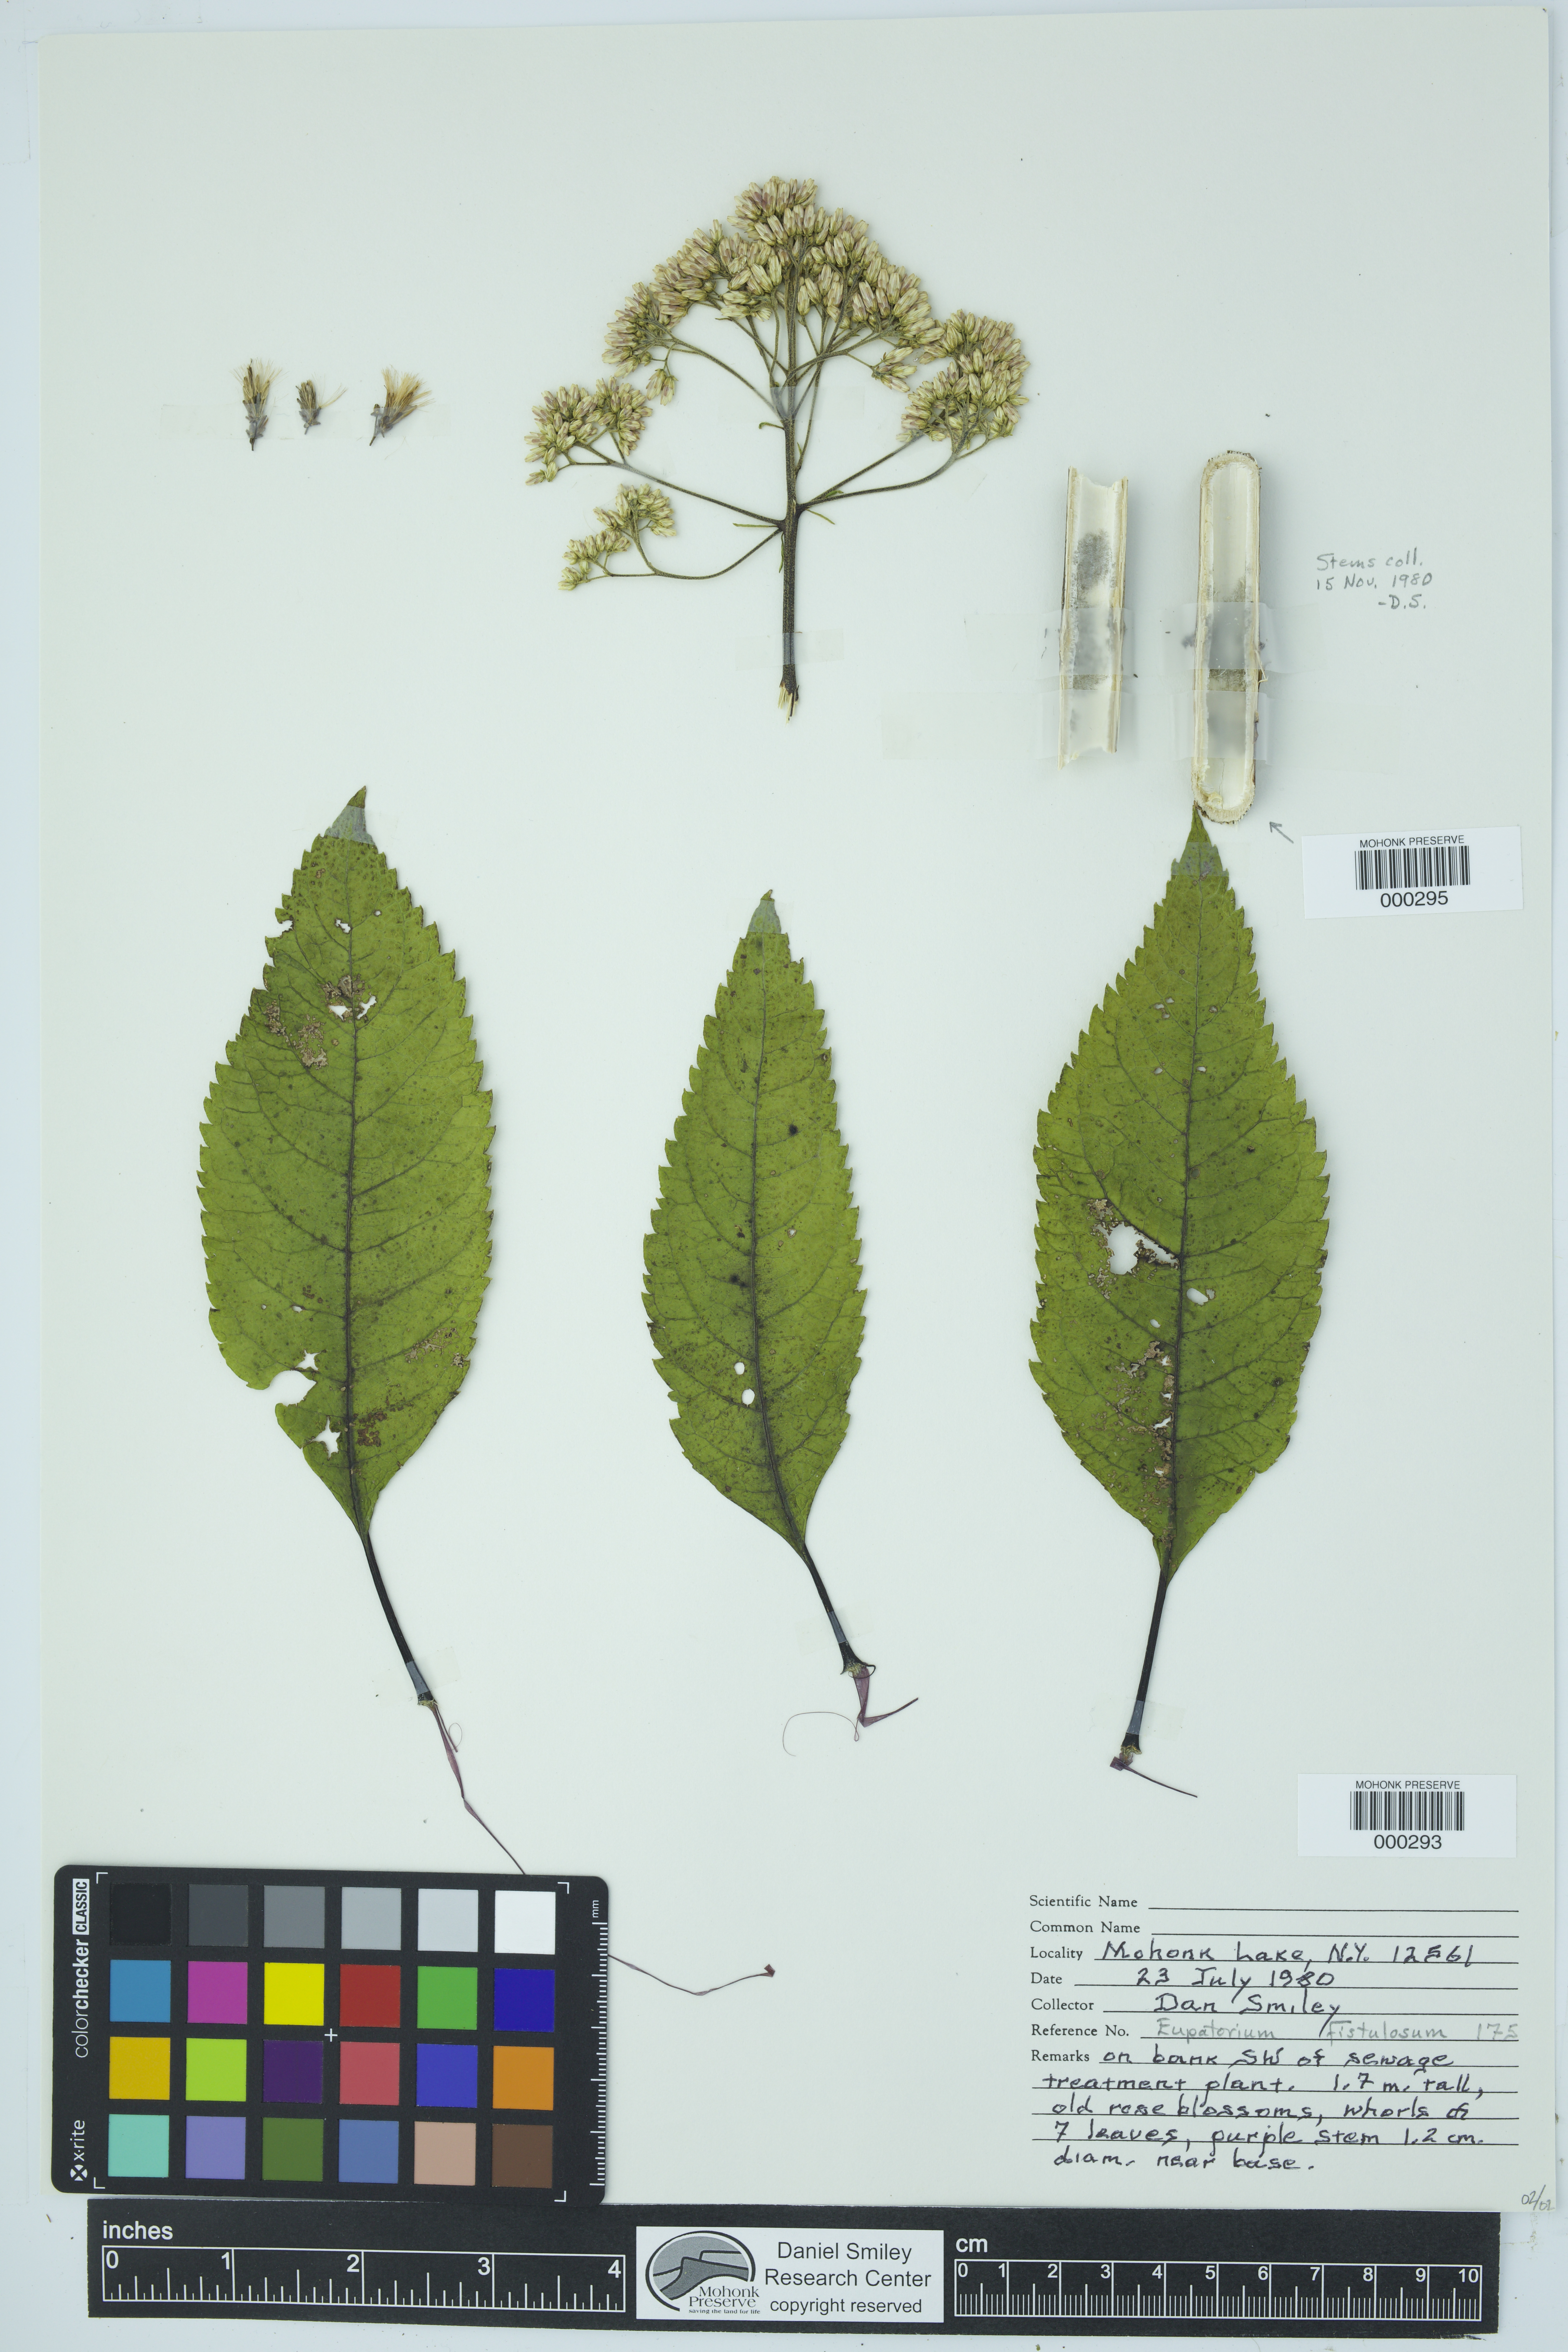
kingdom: Plantae
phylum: Tracheophyta
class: Magnoliopsida
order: Asterales
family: Asteraceae
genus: Eutrochium
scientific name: Eutrochium fistulosum
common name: Trumpetweed
